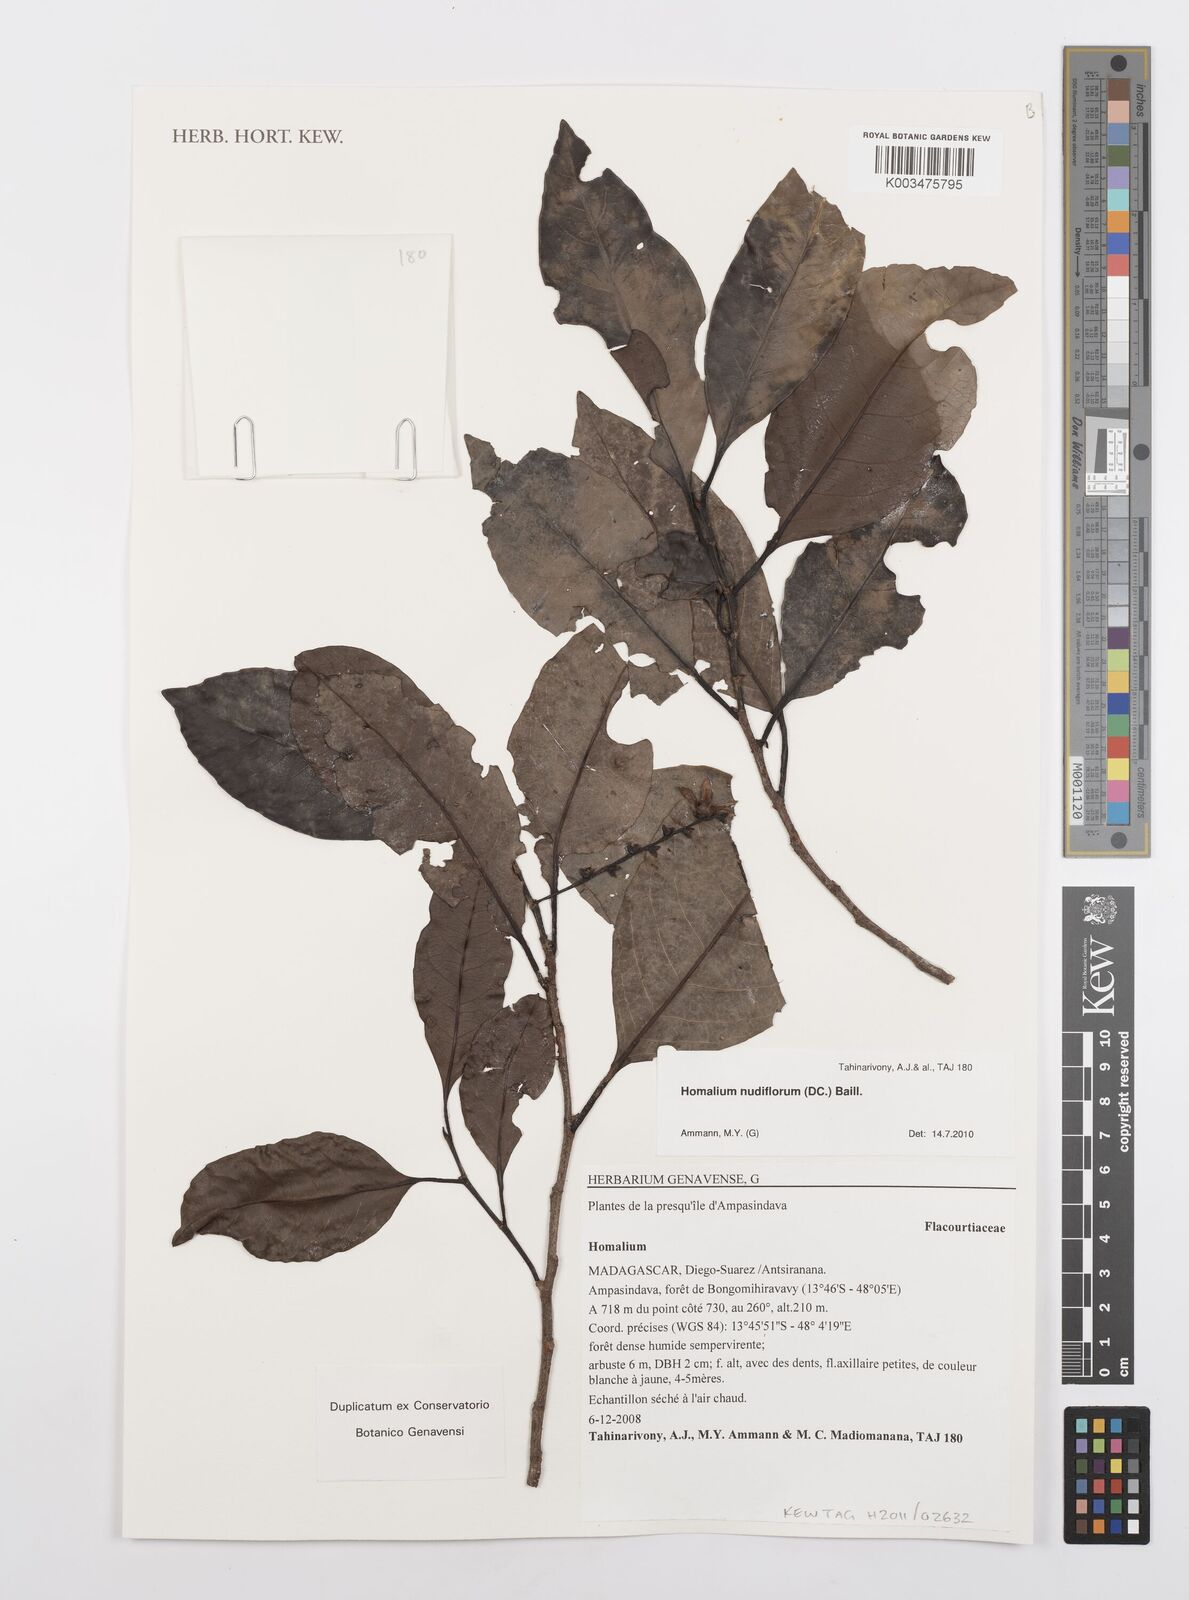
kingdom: Plantae
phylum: Tracheophyta
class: Magnoliopsida
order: Malpighiales
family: Salicaceae
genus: Homalium
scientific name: Homalium nudiflorum
